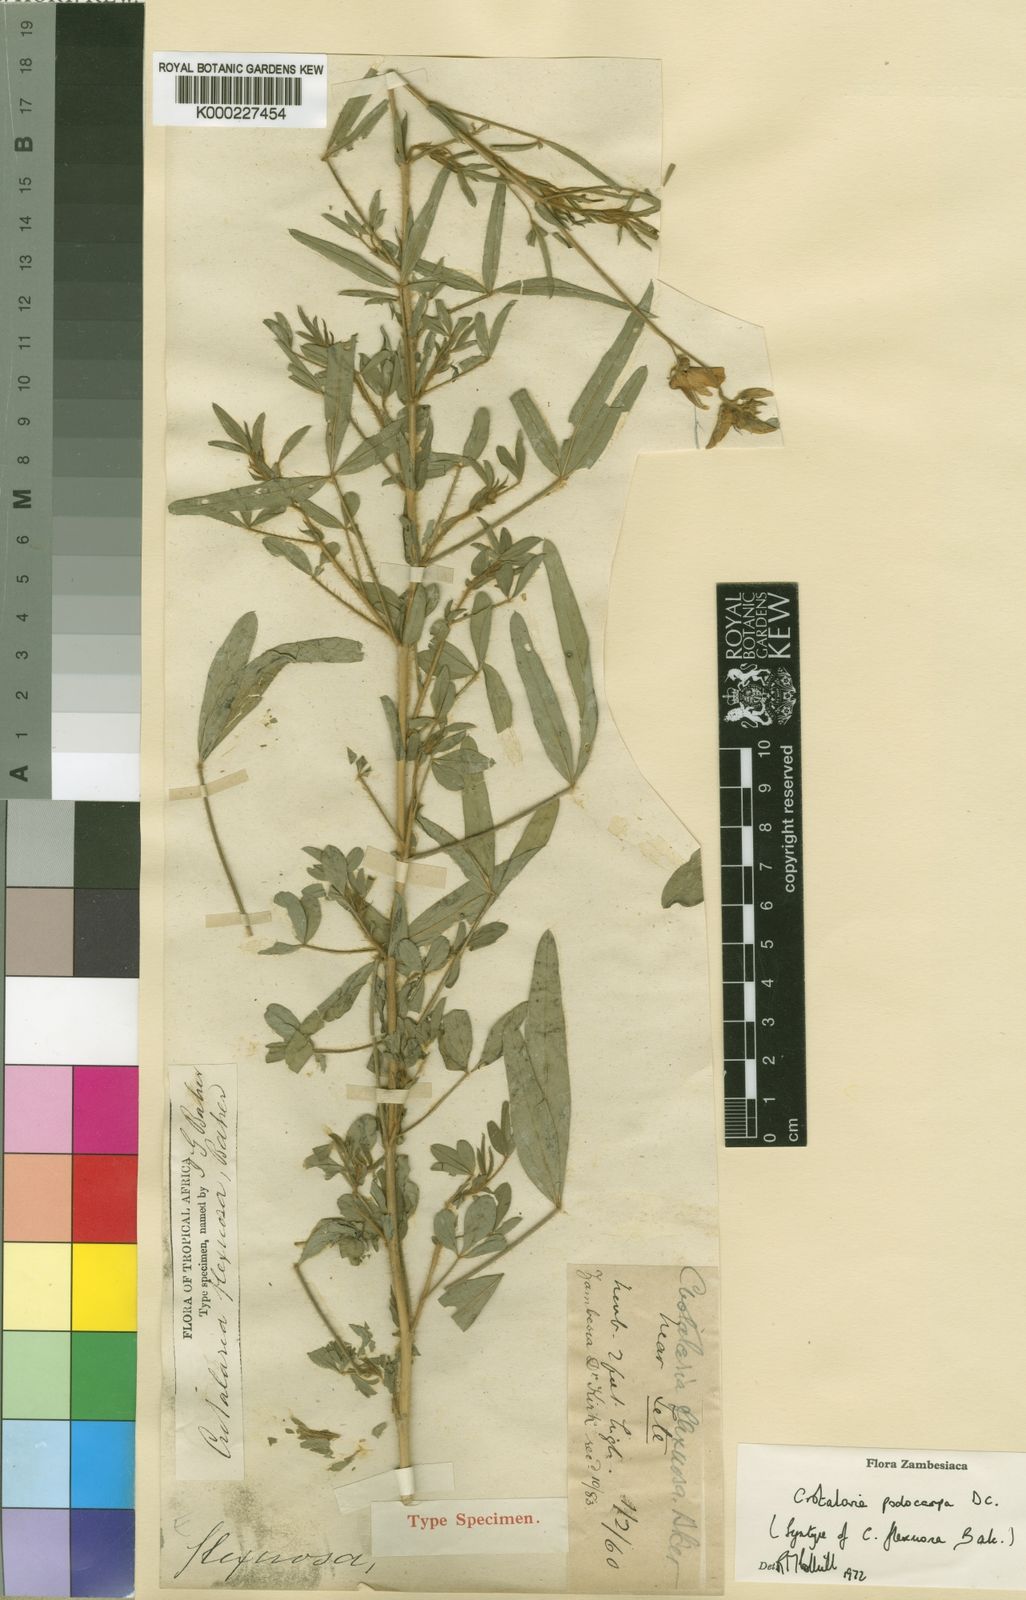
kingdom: Plantae
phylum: Tracheophyta
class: Magnoliopsida
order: Fabales
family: Fabaceae
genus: Crotalaria
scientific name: Crotalaria podocarpa
